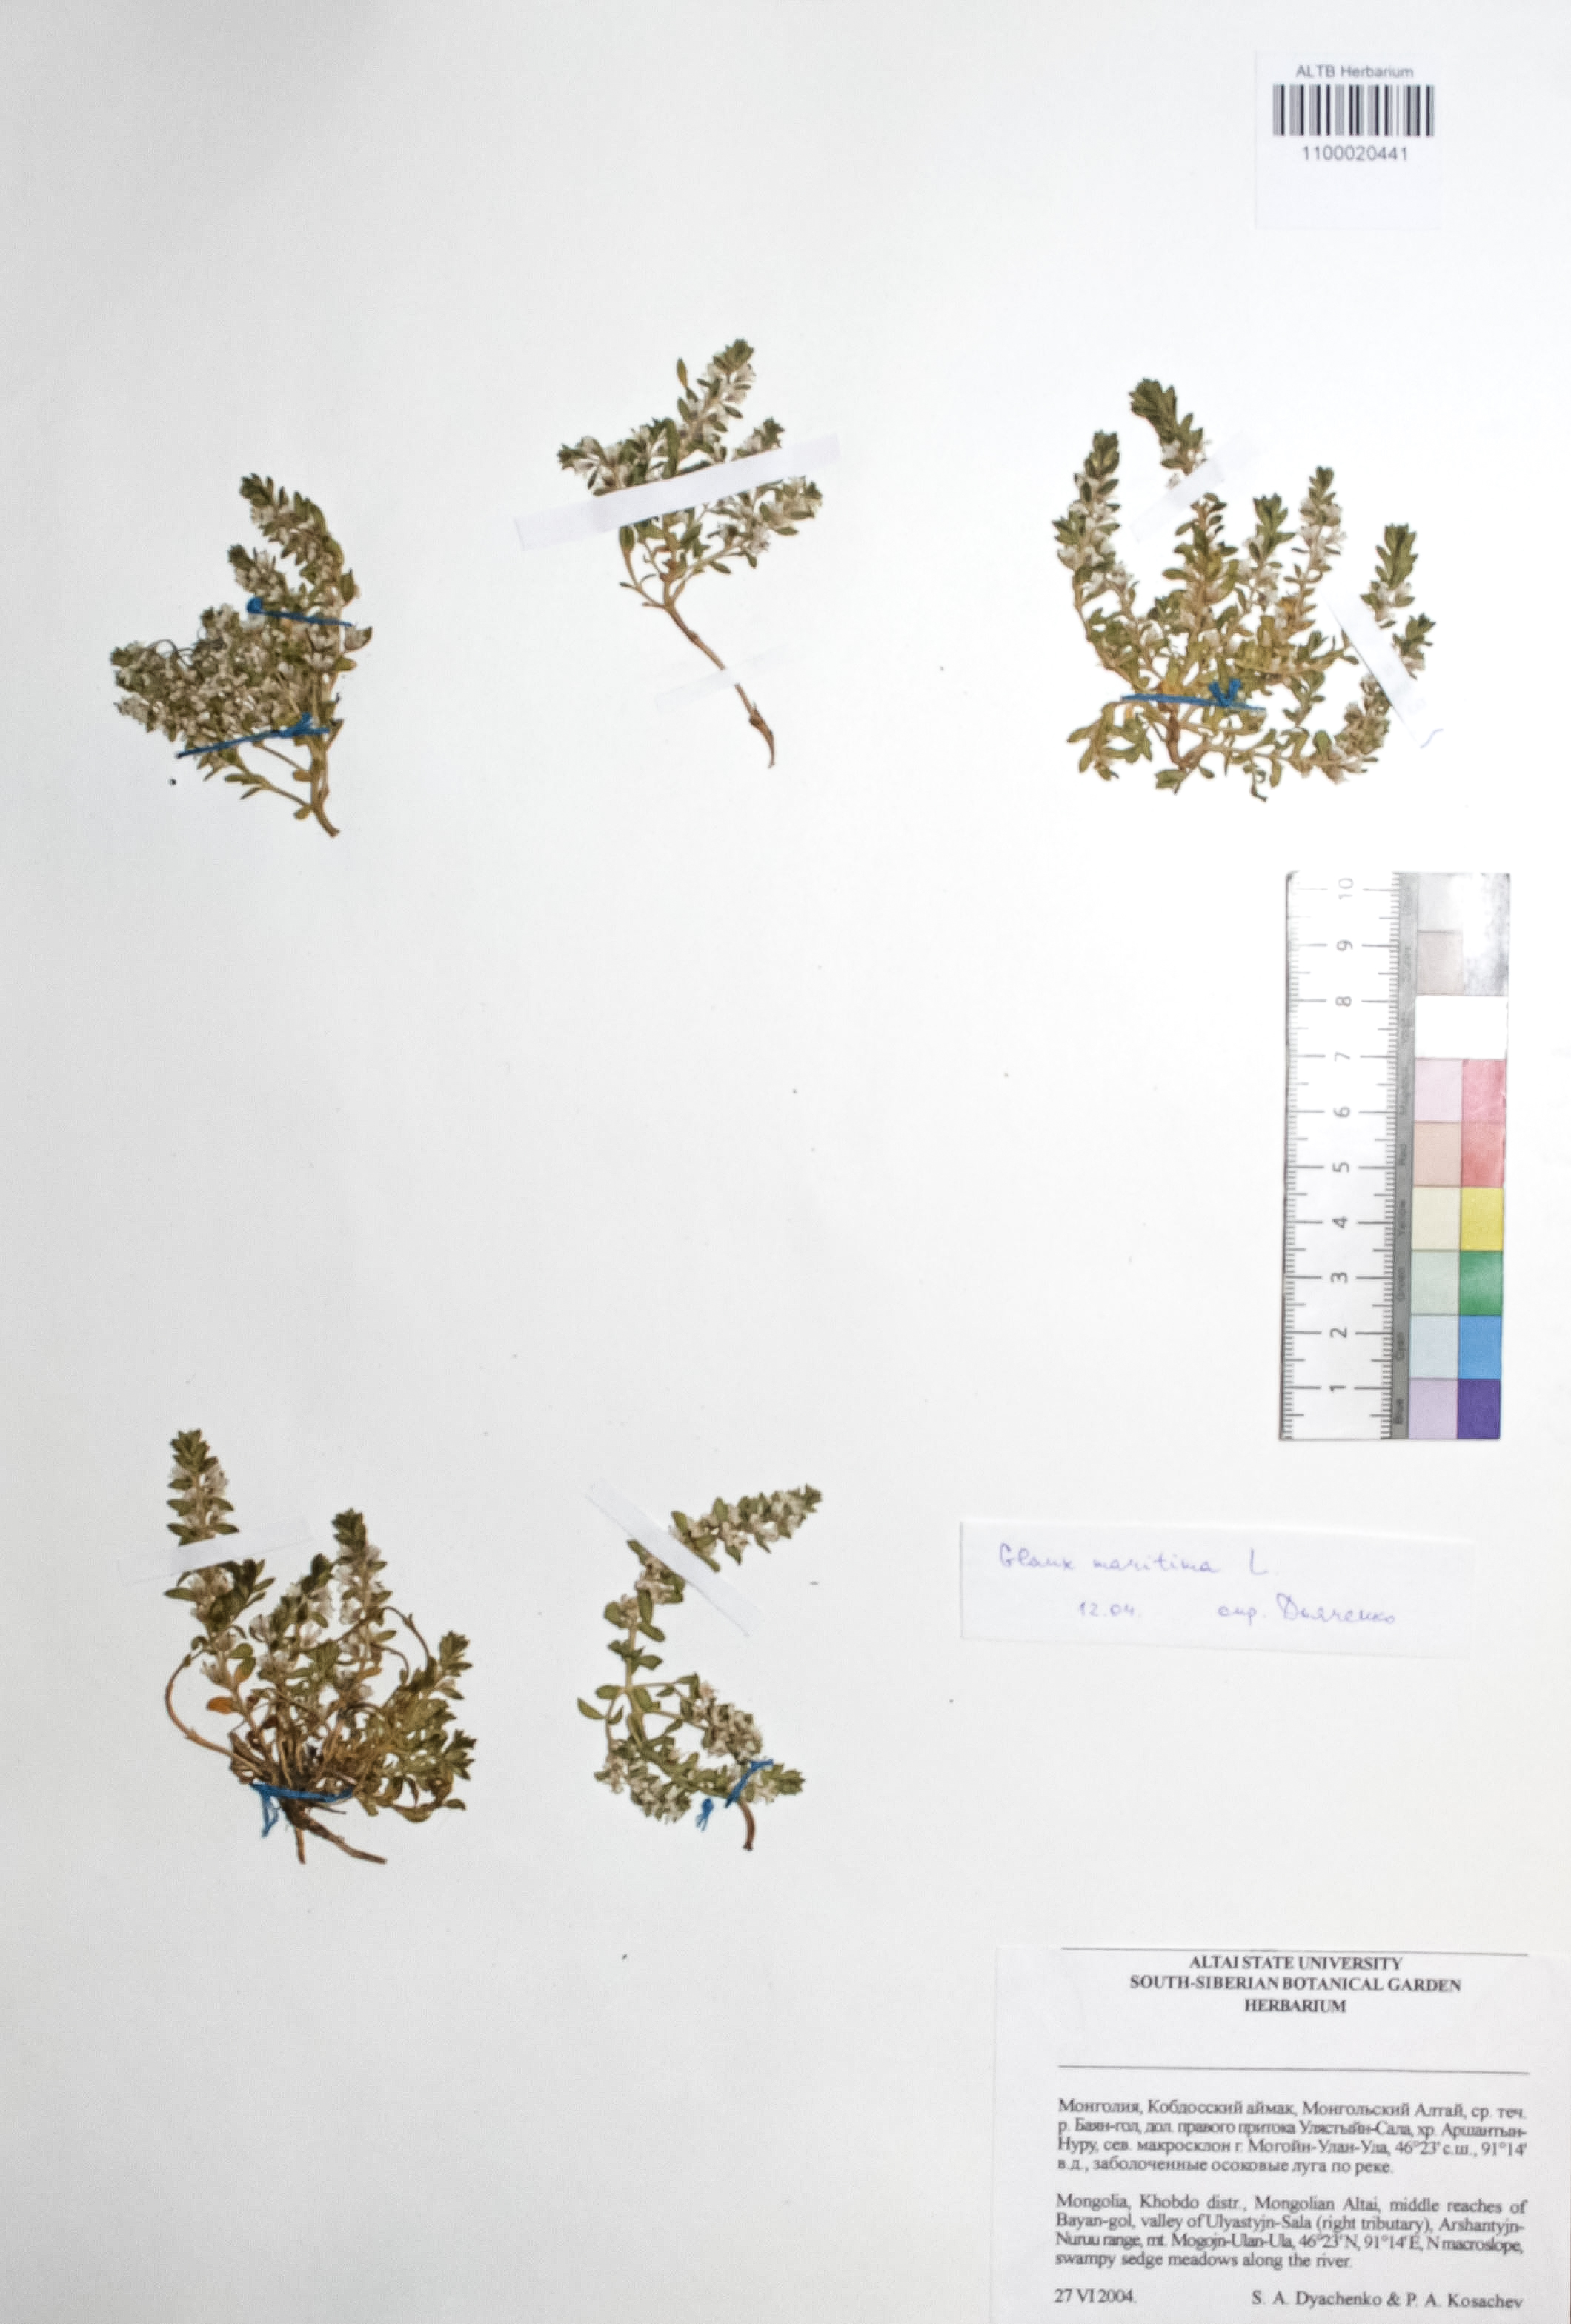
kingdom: Plantae
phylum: Tracheophyta
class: Magnoliopsida
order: Ericales
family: Primulaceae
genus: Lysimachia
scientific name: Lysimachia maritima
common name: Sea milkwort
